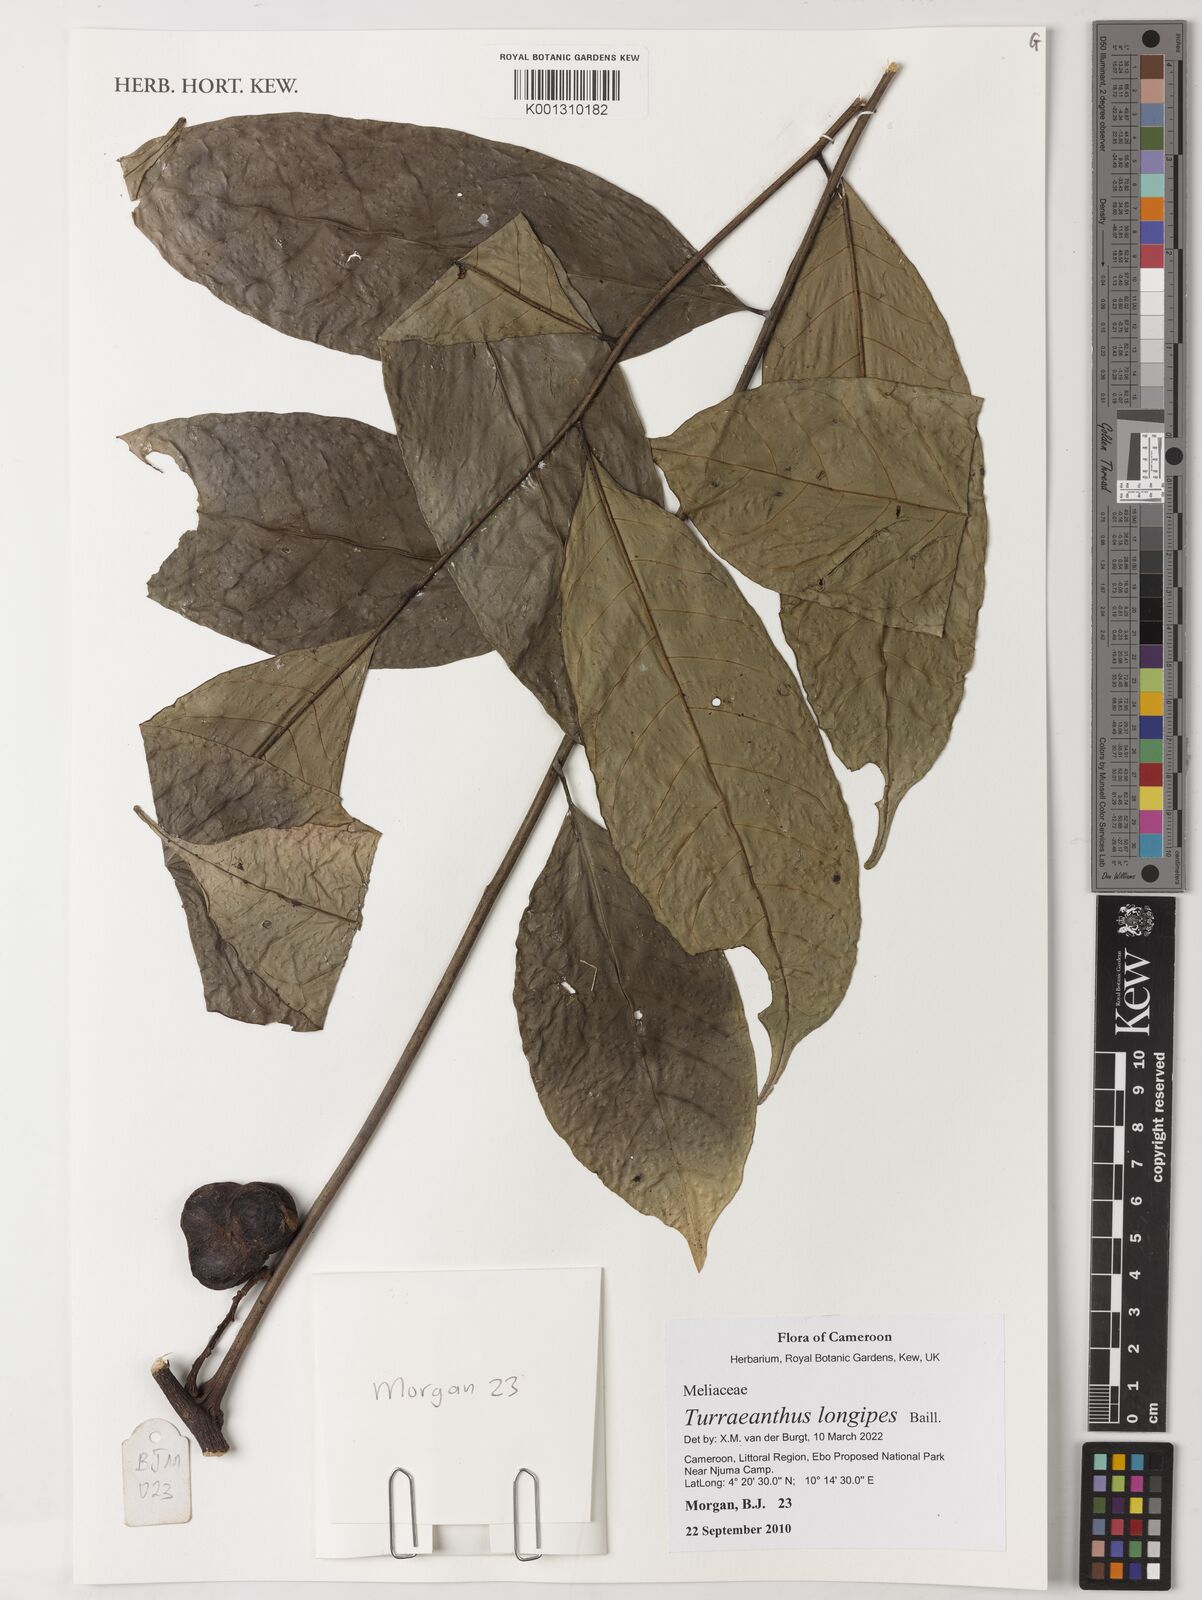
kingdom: Plantae
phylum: Tracheophyta
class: Magnoliopsida
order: Sapindales
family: Meliaceae
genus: Turraeanthus
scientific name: Turraeanthus longipes
